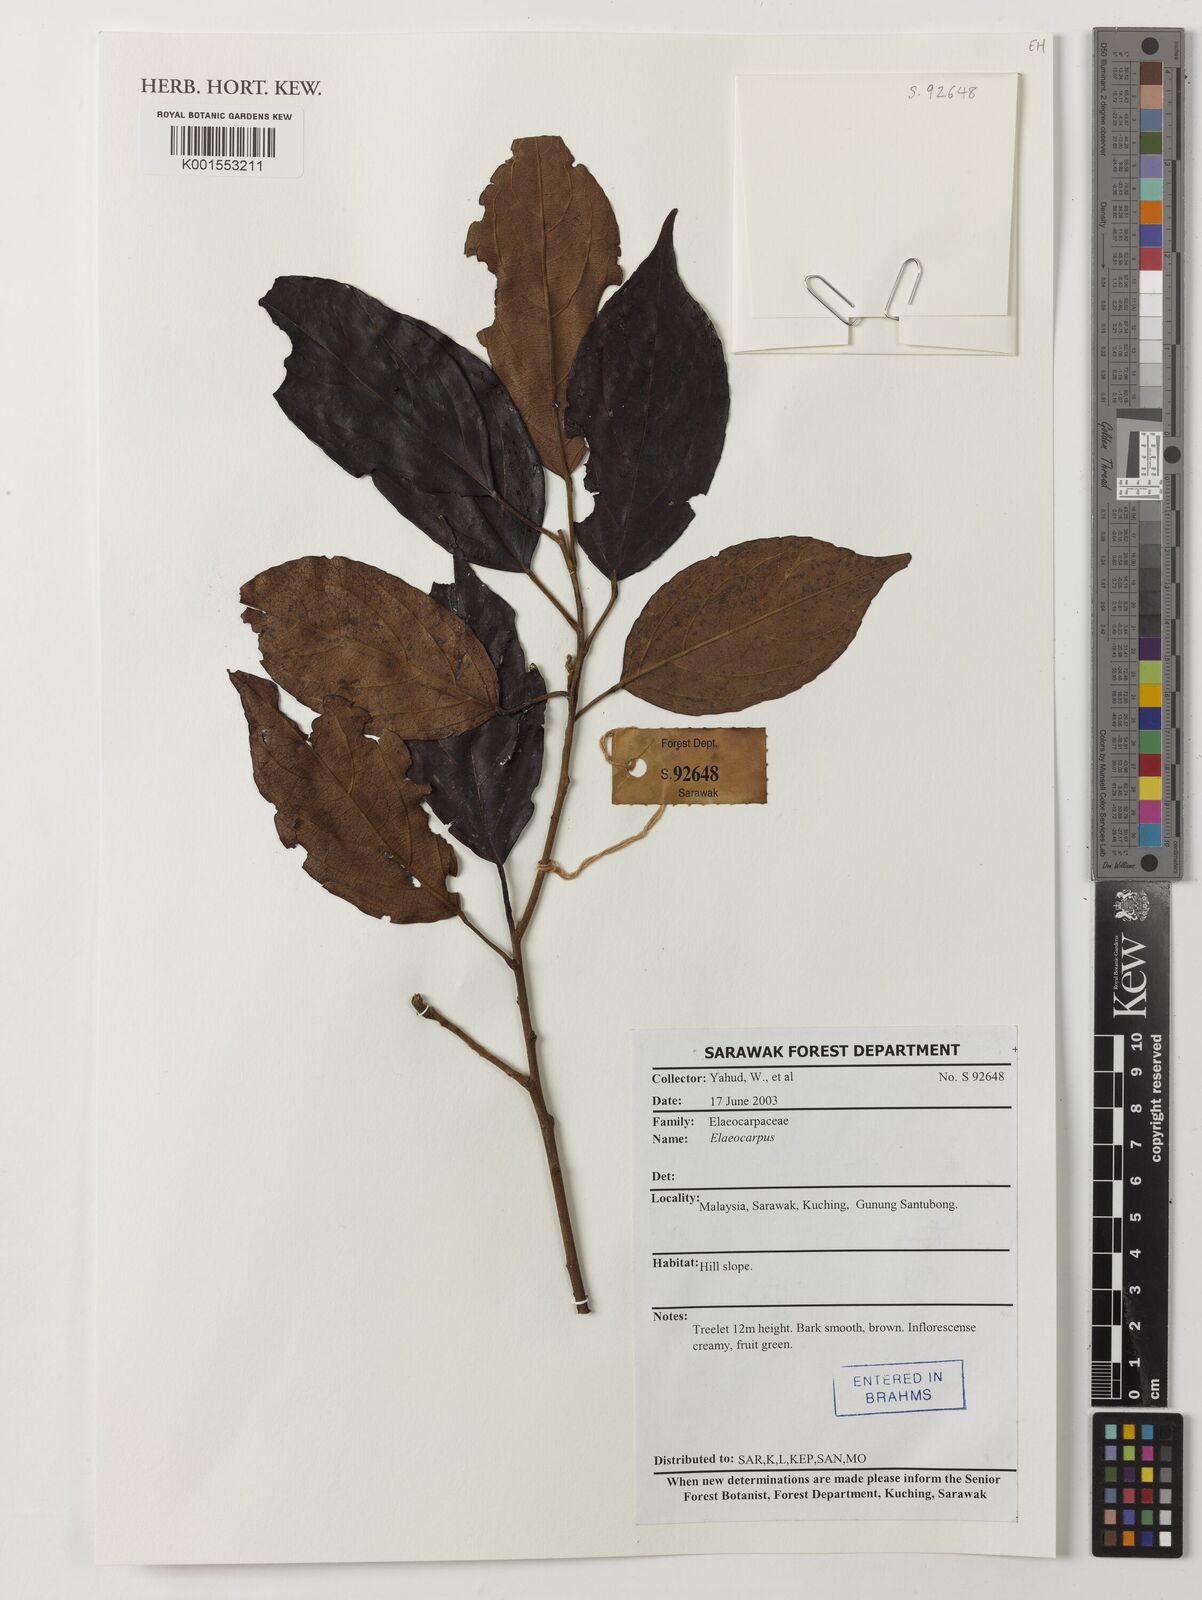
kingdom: Plantae
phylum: Tracheophyta
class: Magnoliopsida
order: Oxalidales
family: Elaeocarpaceae
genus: Elaeocarpus
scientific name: Elaeocarpus
